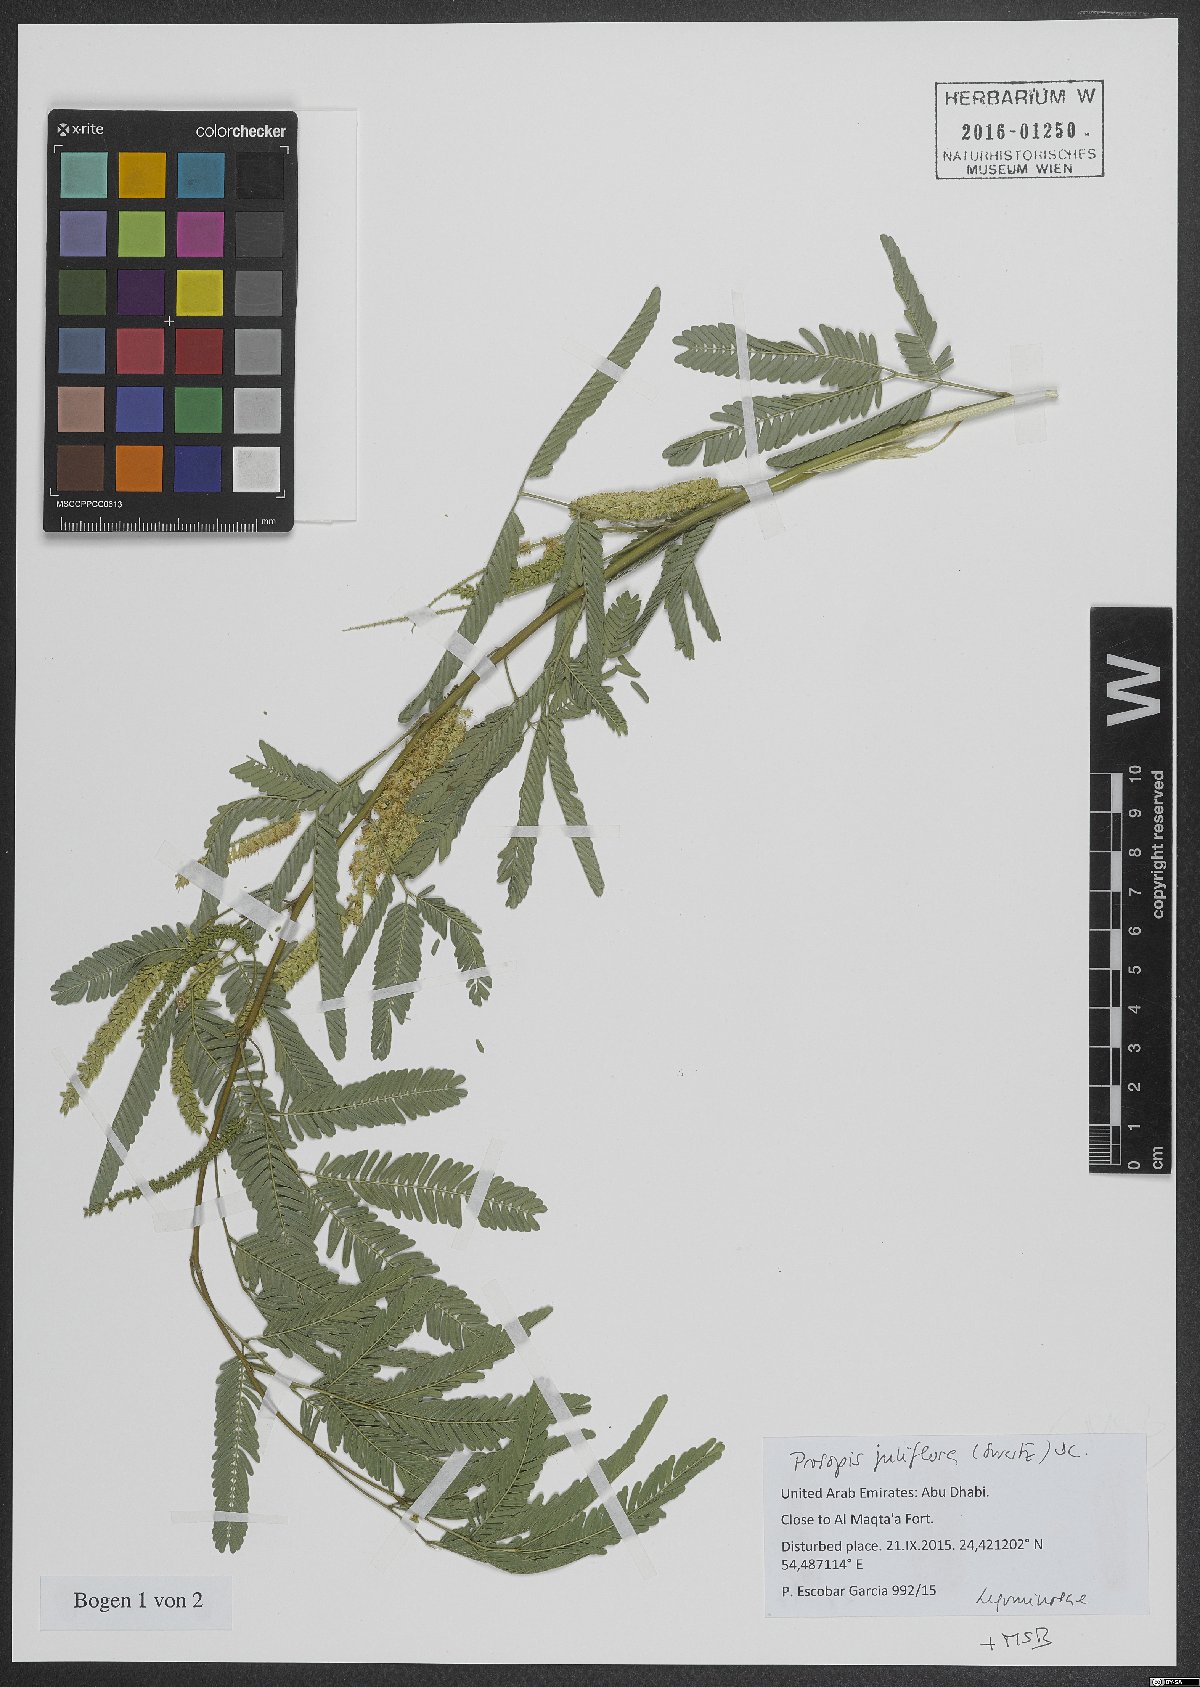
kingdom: Plantae
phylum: Tracheophyta
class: Magnoliopsida
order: Fabales
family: Fabaceae
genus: Prosopis
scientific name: Prosopis juliflora
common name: Mesquite
